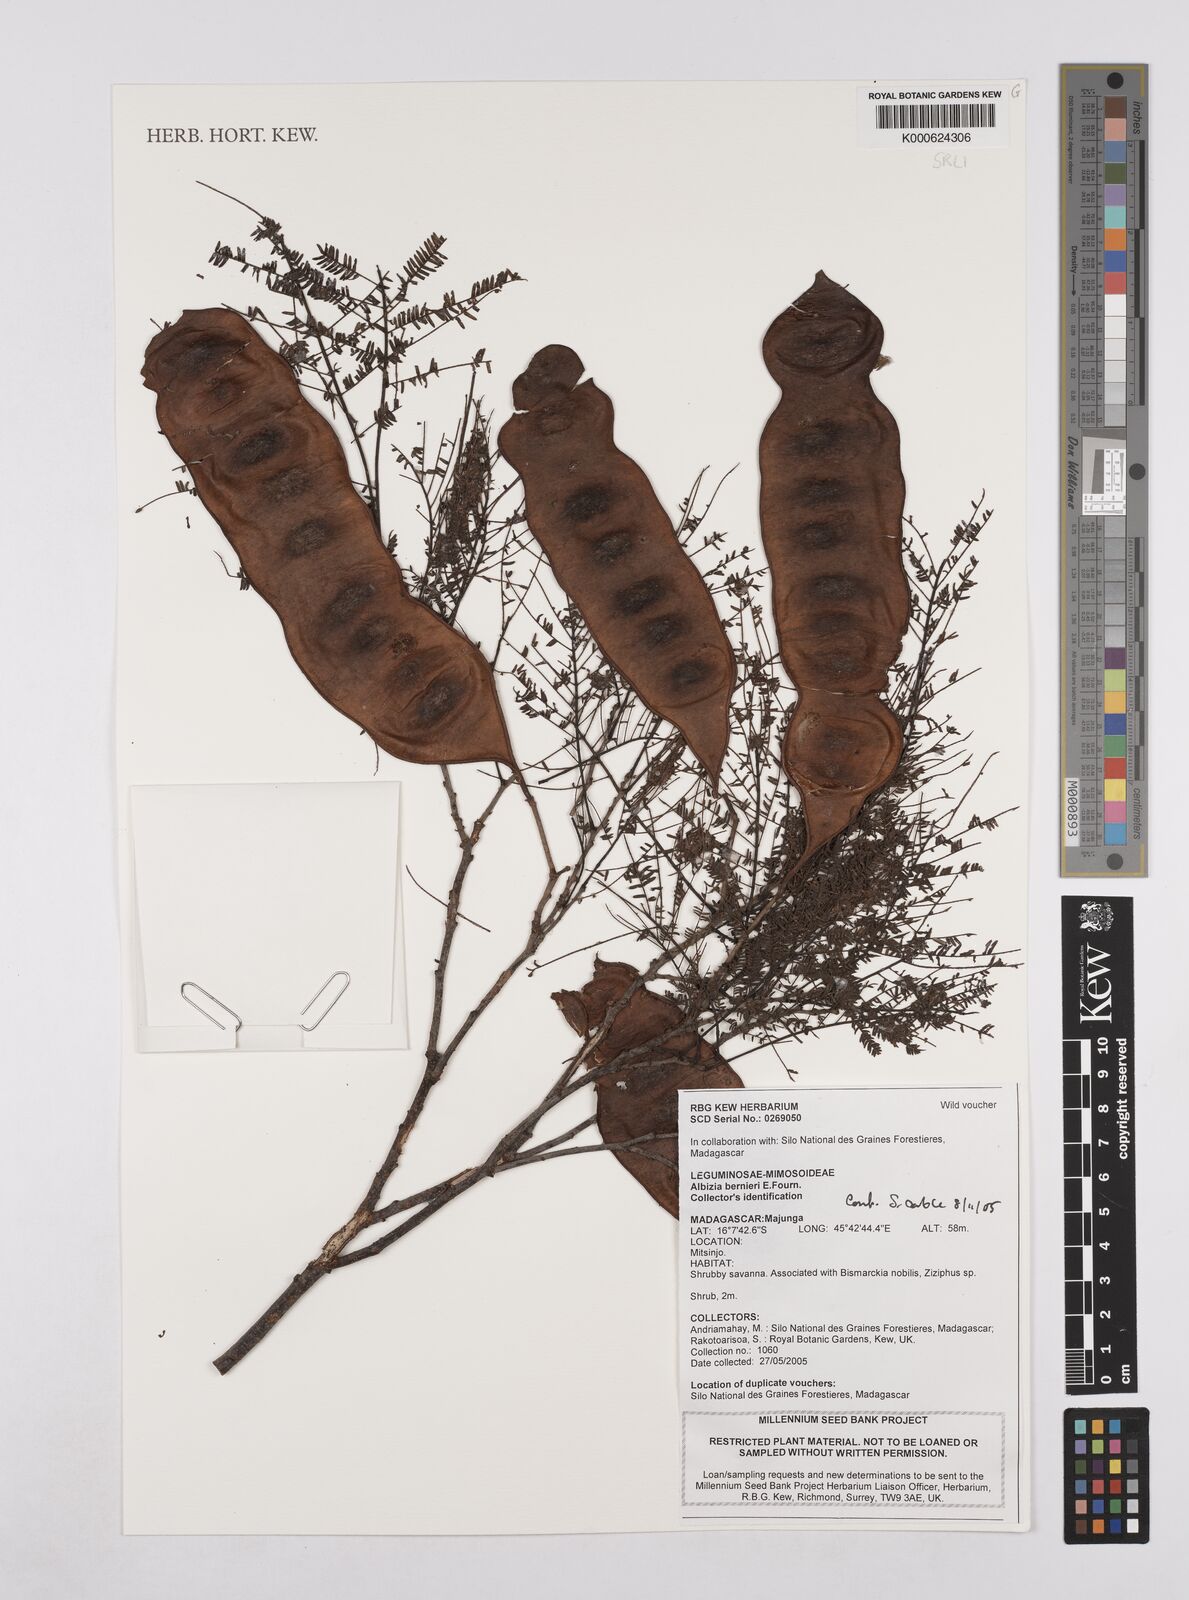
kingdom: Plantae
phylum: Tracheophyta
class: Magnoliopsida
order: Fabales
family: Fabaceae
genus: Albizia
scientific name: Albizia bernieri
